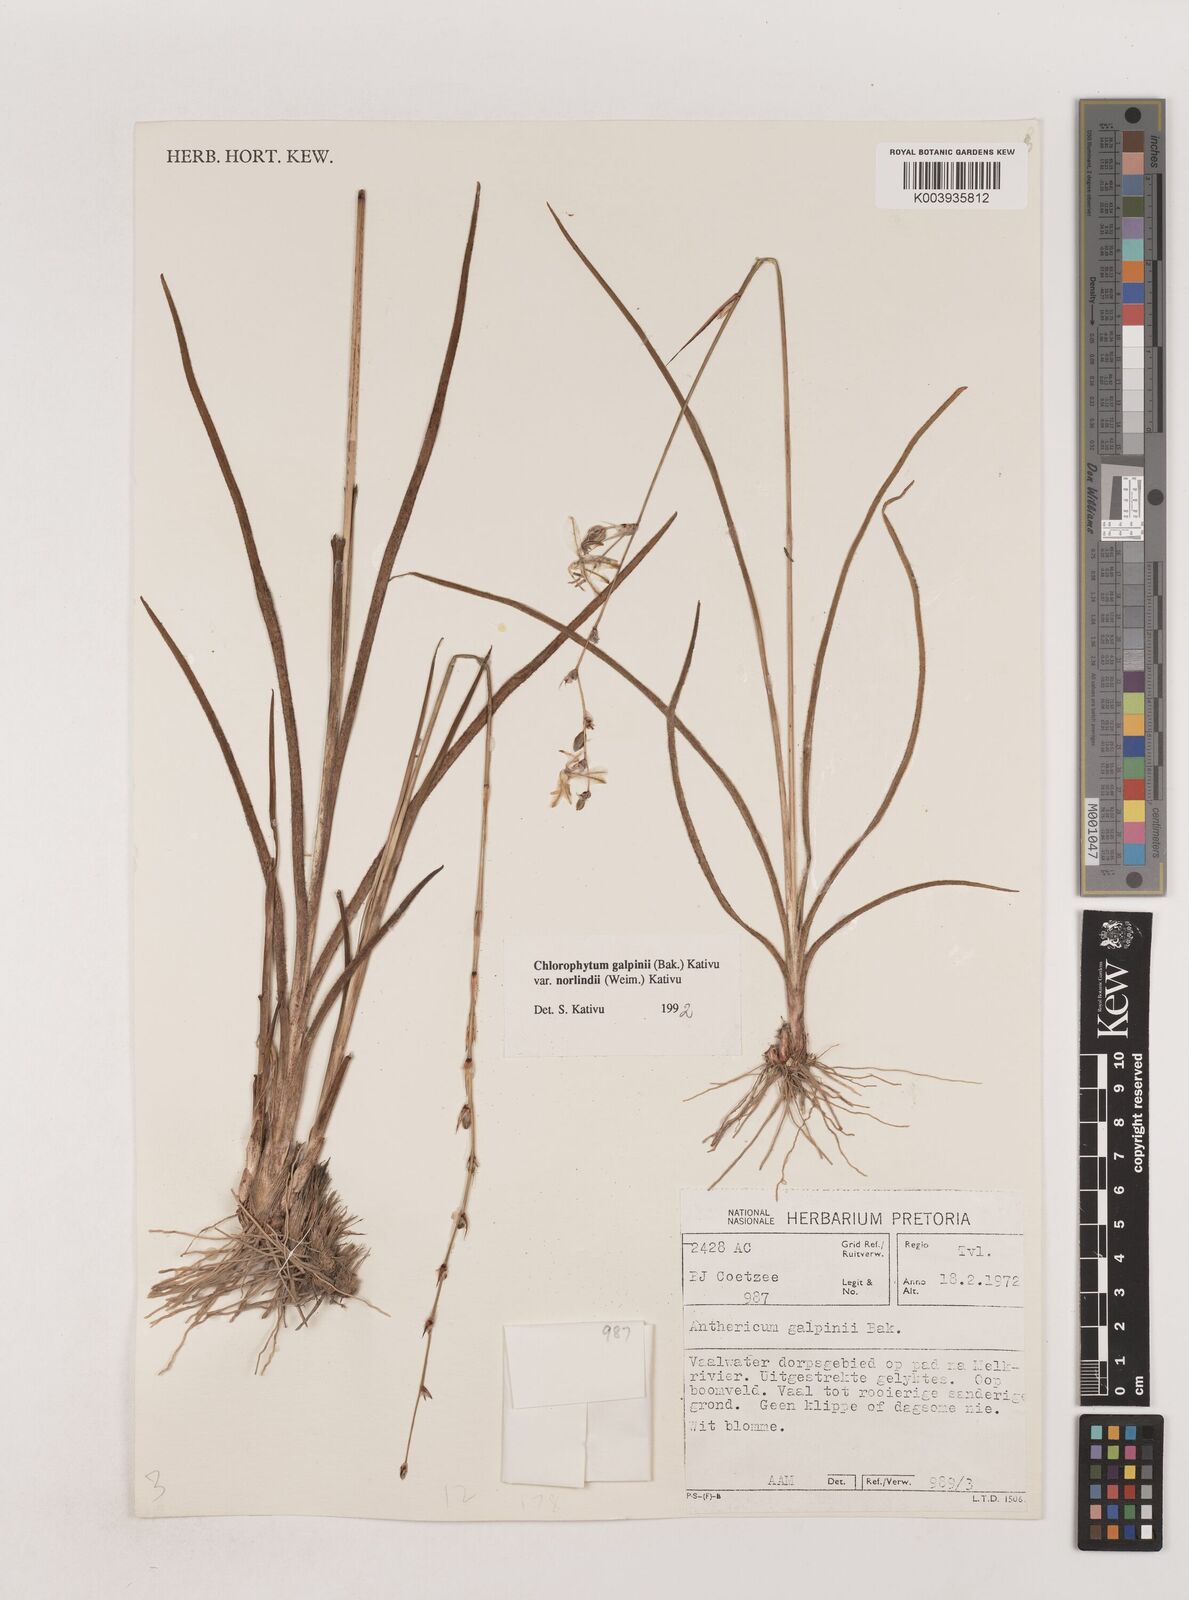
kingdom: Plantae
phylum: Tracheophyta
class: Liliopsida
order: Asparagales
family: Asparagaceae
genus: Chlorophytum
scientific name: Chlorophytum galpinii
